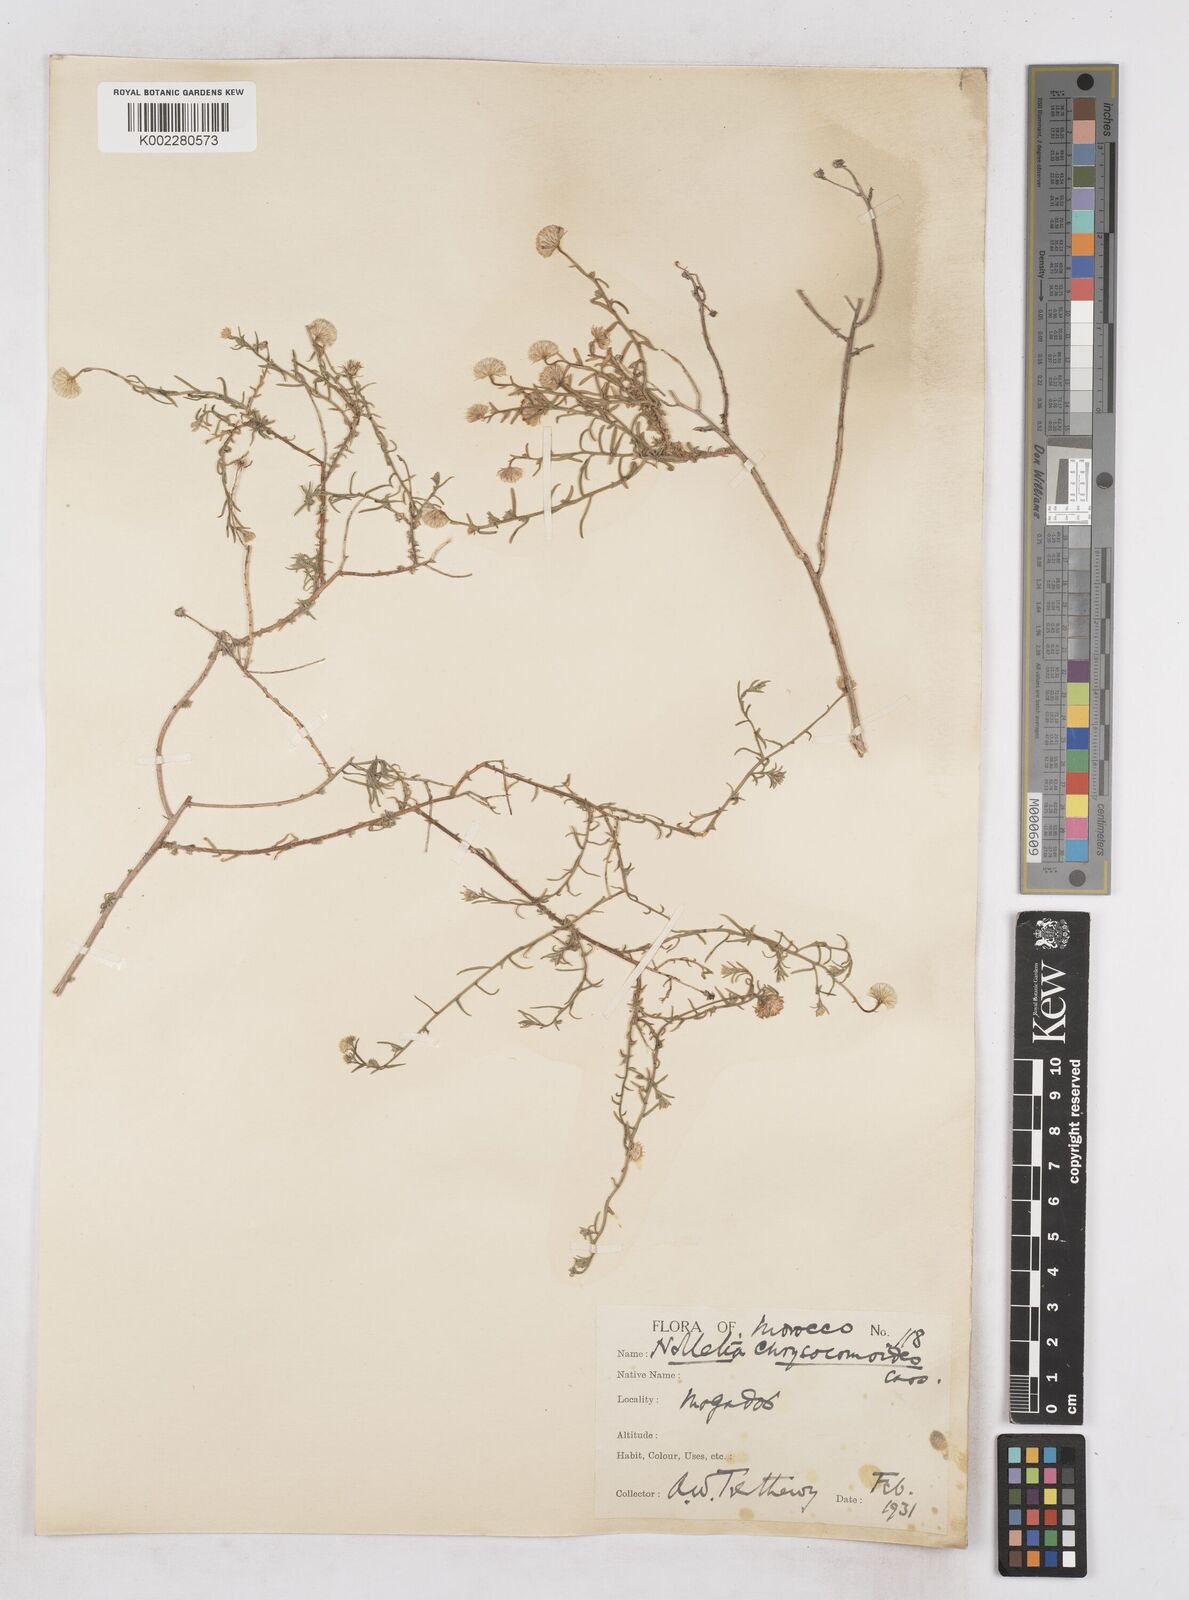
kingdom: Plantae
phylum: Tracheophyta
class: Magnoliopsida
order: Asterales
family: Asteraceae
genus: Nolletia
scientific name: Nolletia chrysocomoides
